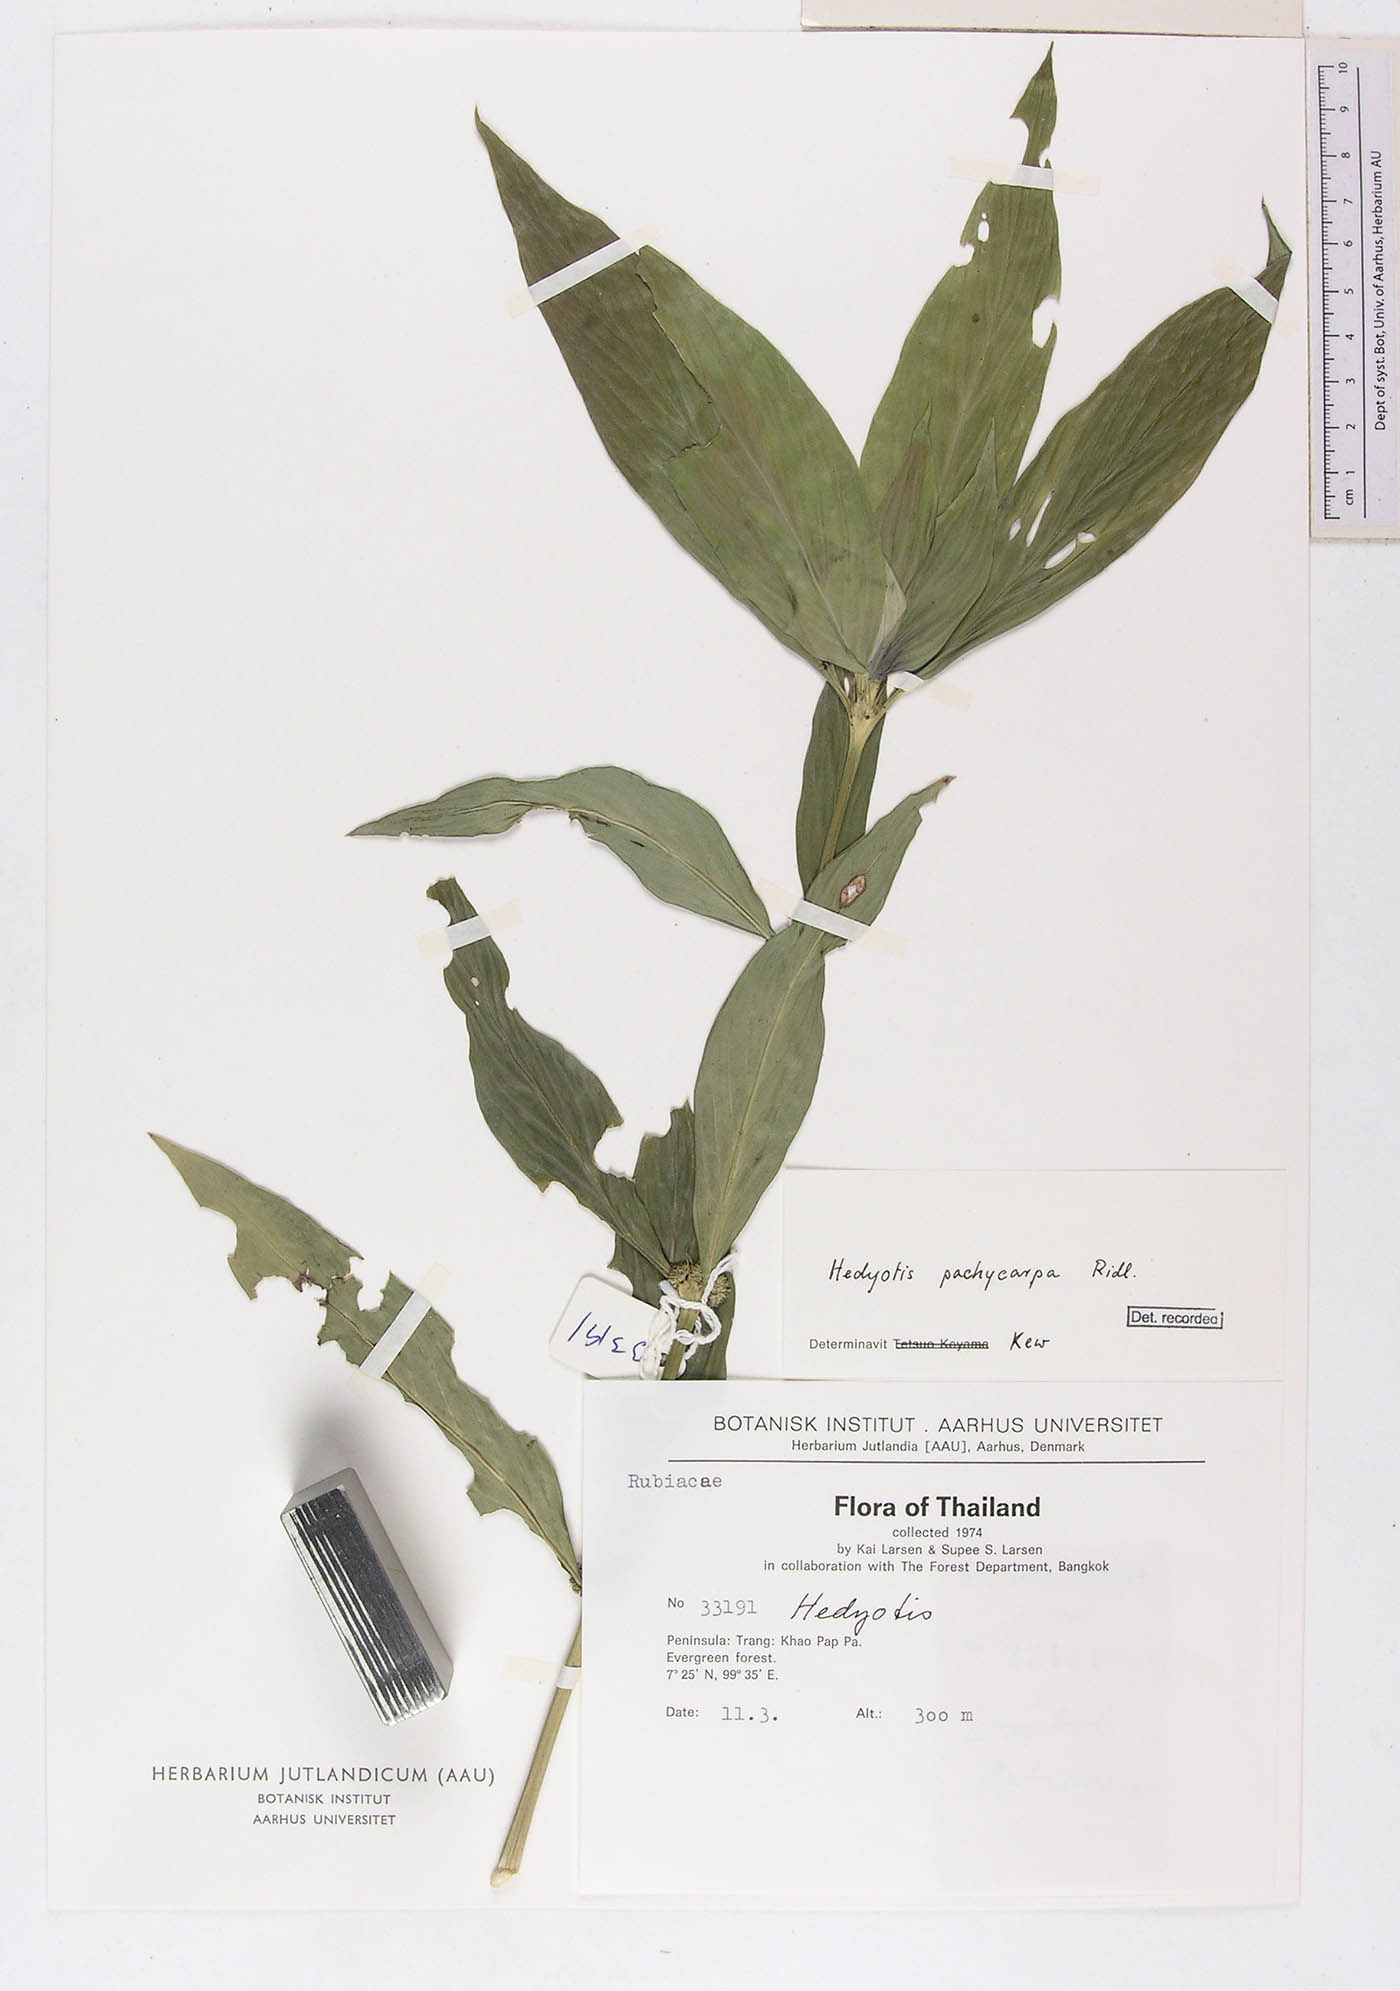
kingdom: Plantae
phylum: Tracheophyta
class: Magnoliopsida
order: Gentianales
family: Rubiaceae
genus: Exallage
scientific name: Exallage pachycarpa
